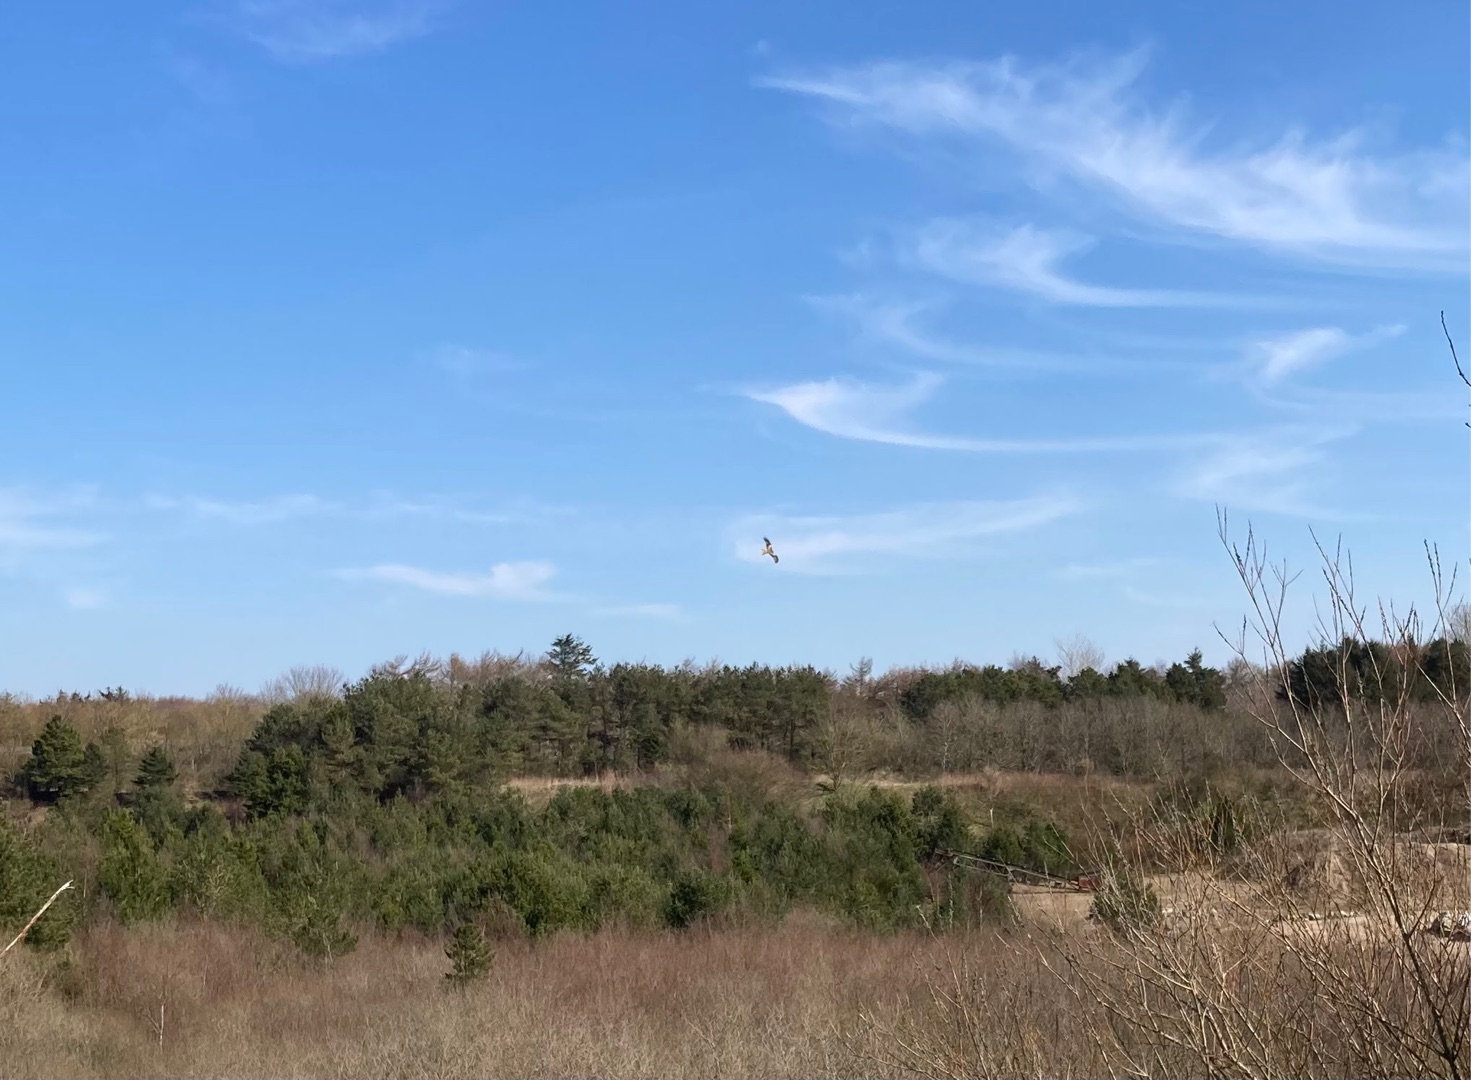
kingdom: Animalia
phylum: Chordata
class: Aves
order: Accipitriformes
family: Accipitridae
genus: Milvus
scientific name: Milvus milvus
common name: Rød glente
